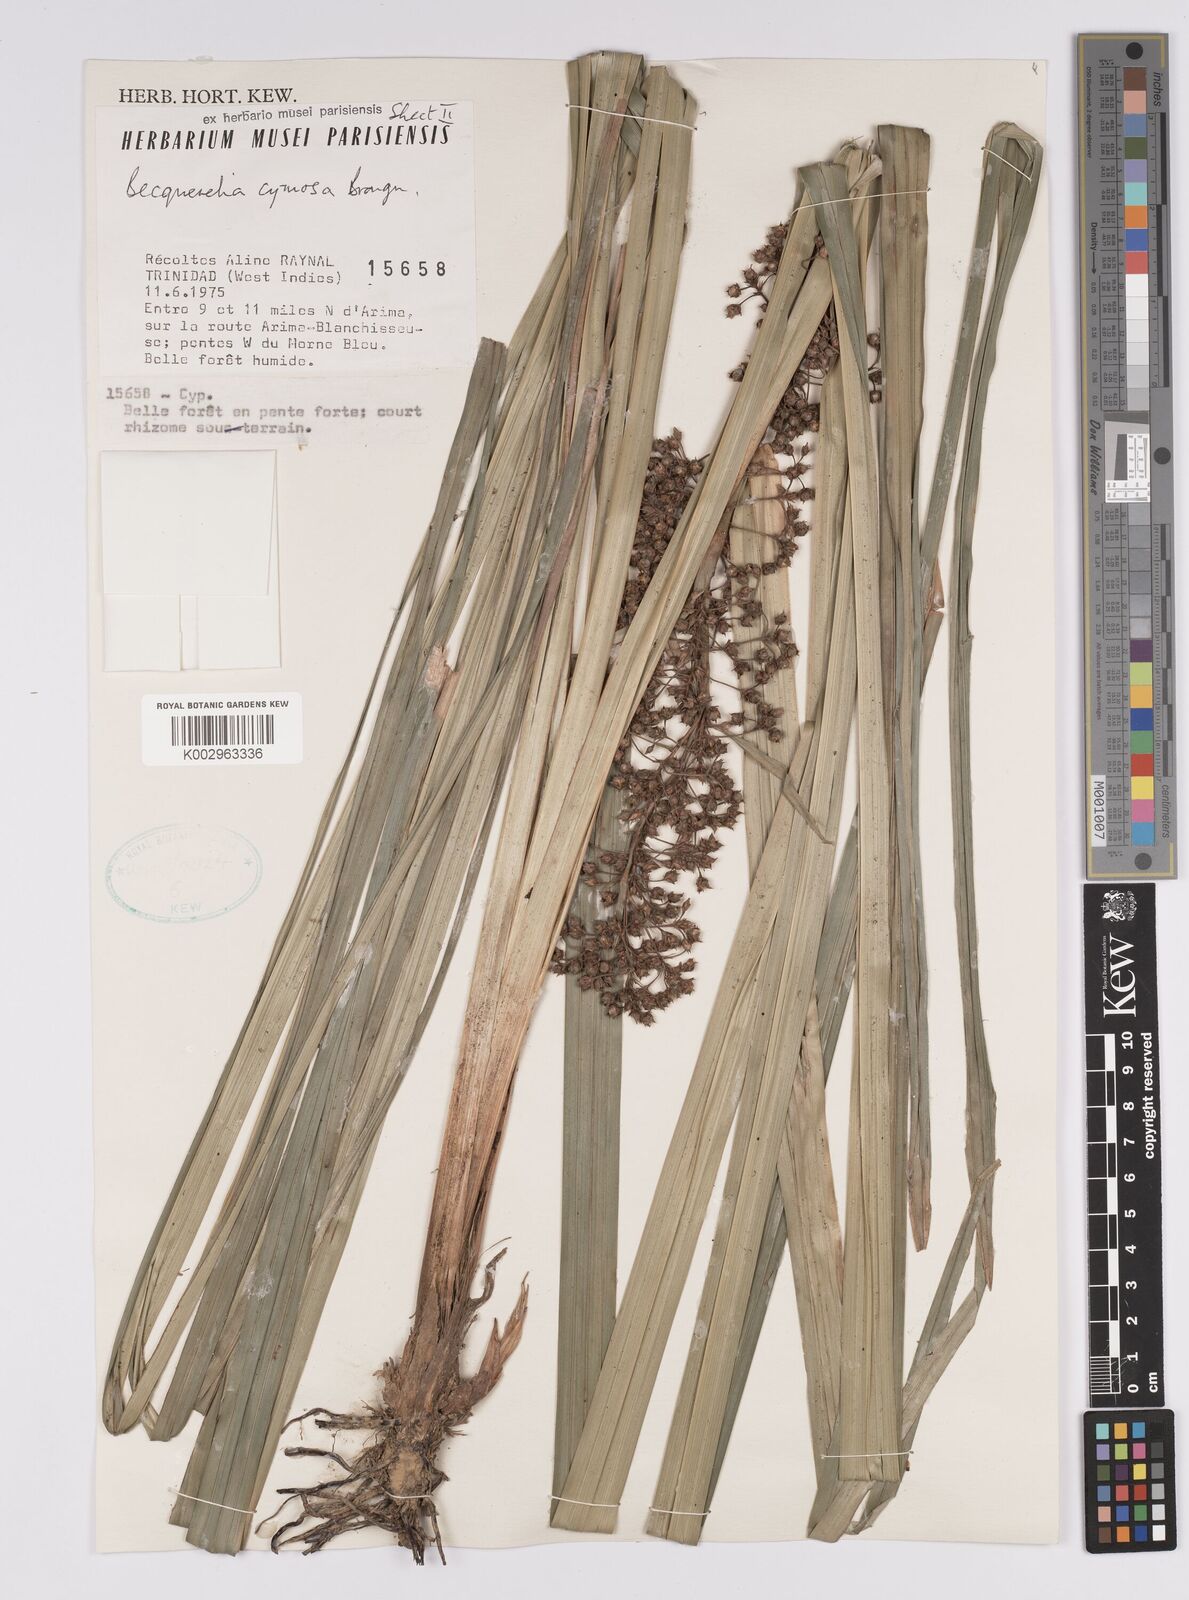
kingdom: Plantae
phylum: Tracheophyta
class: Liliopsida
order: Poales
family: Cyperaceae
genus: Becquerelia
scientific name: Becquerelia cymosa
